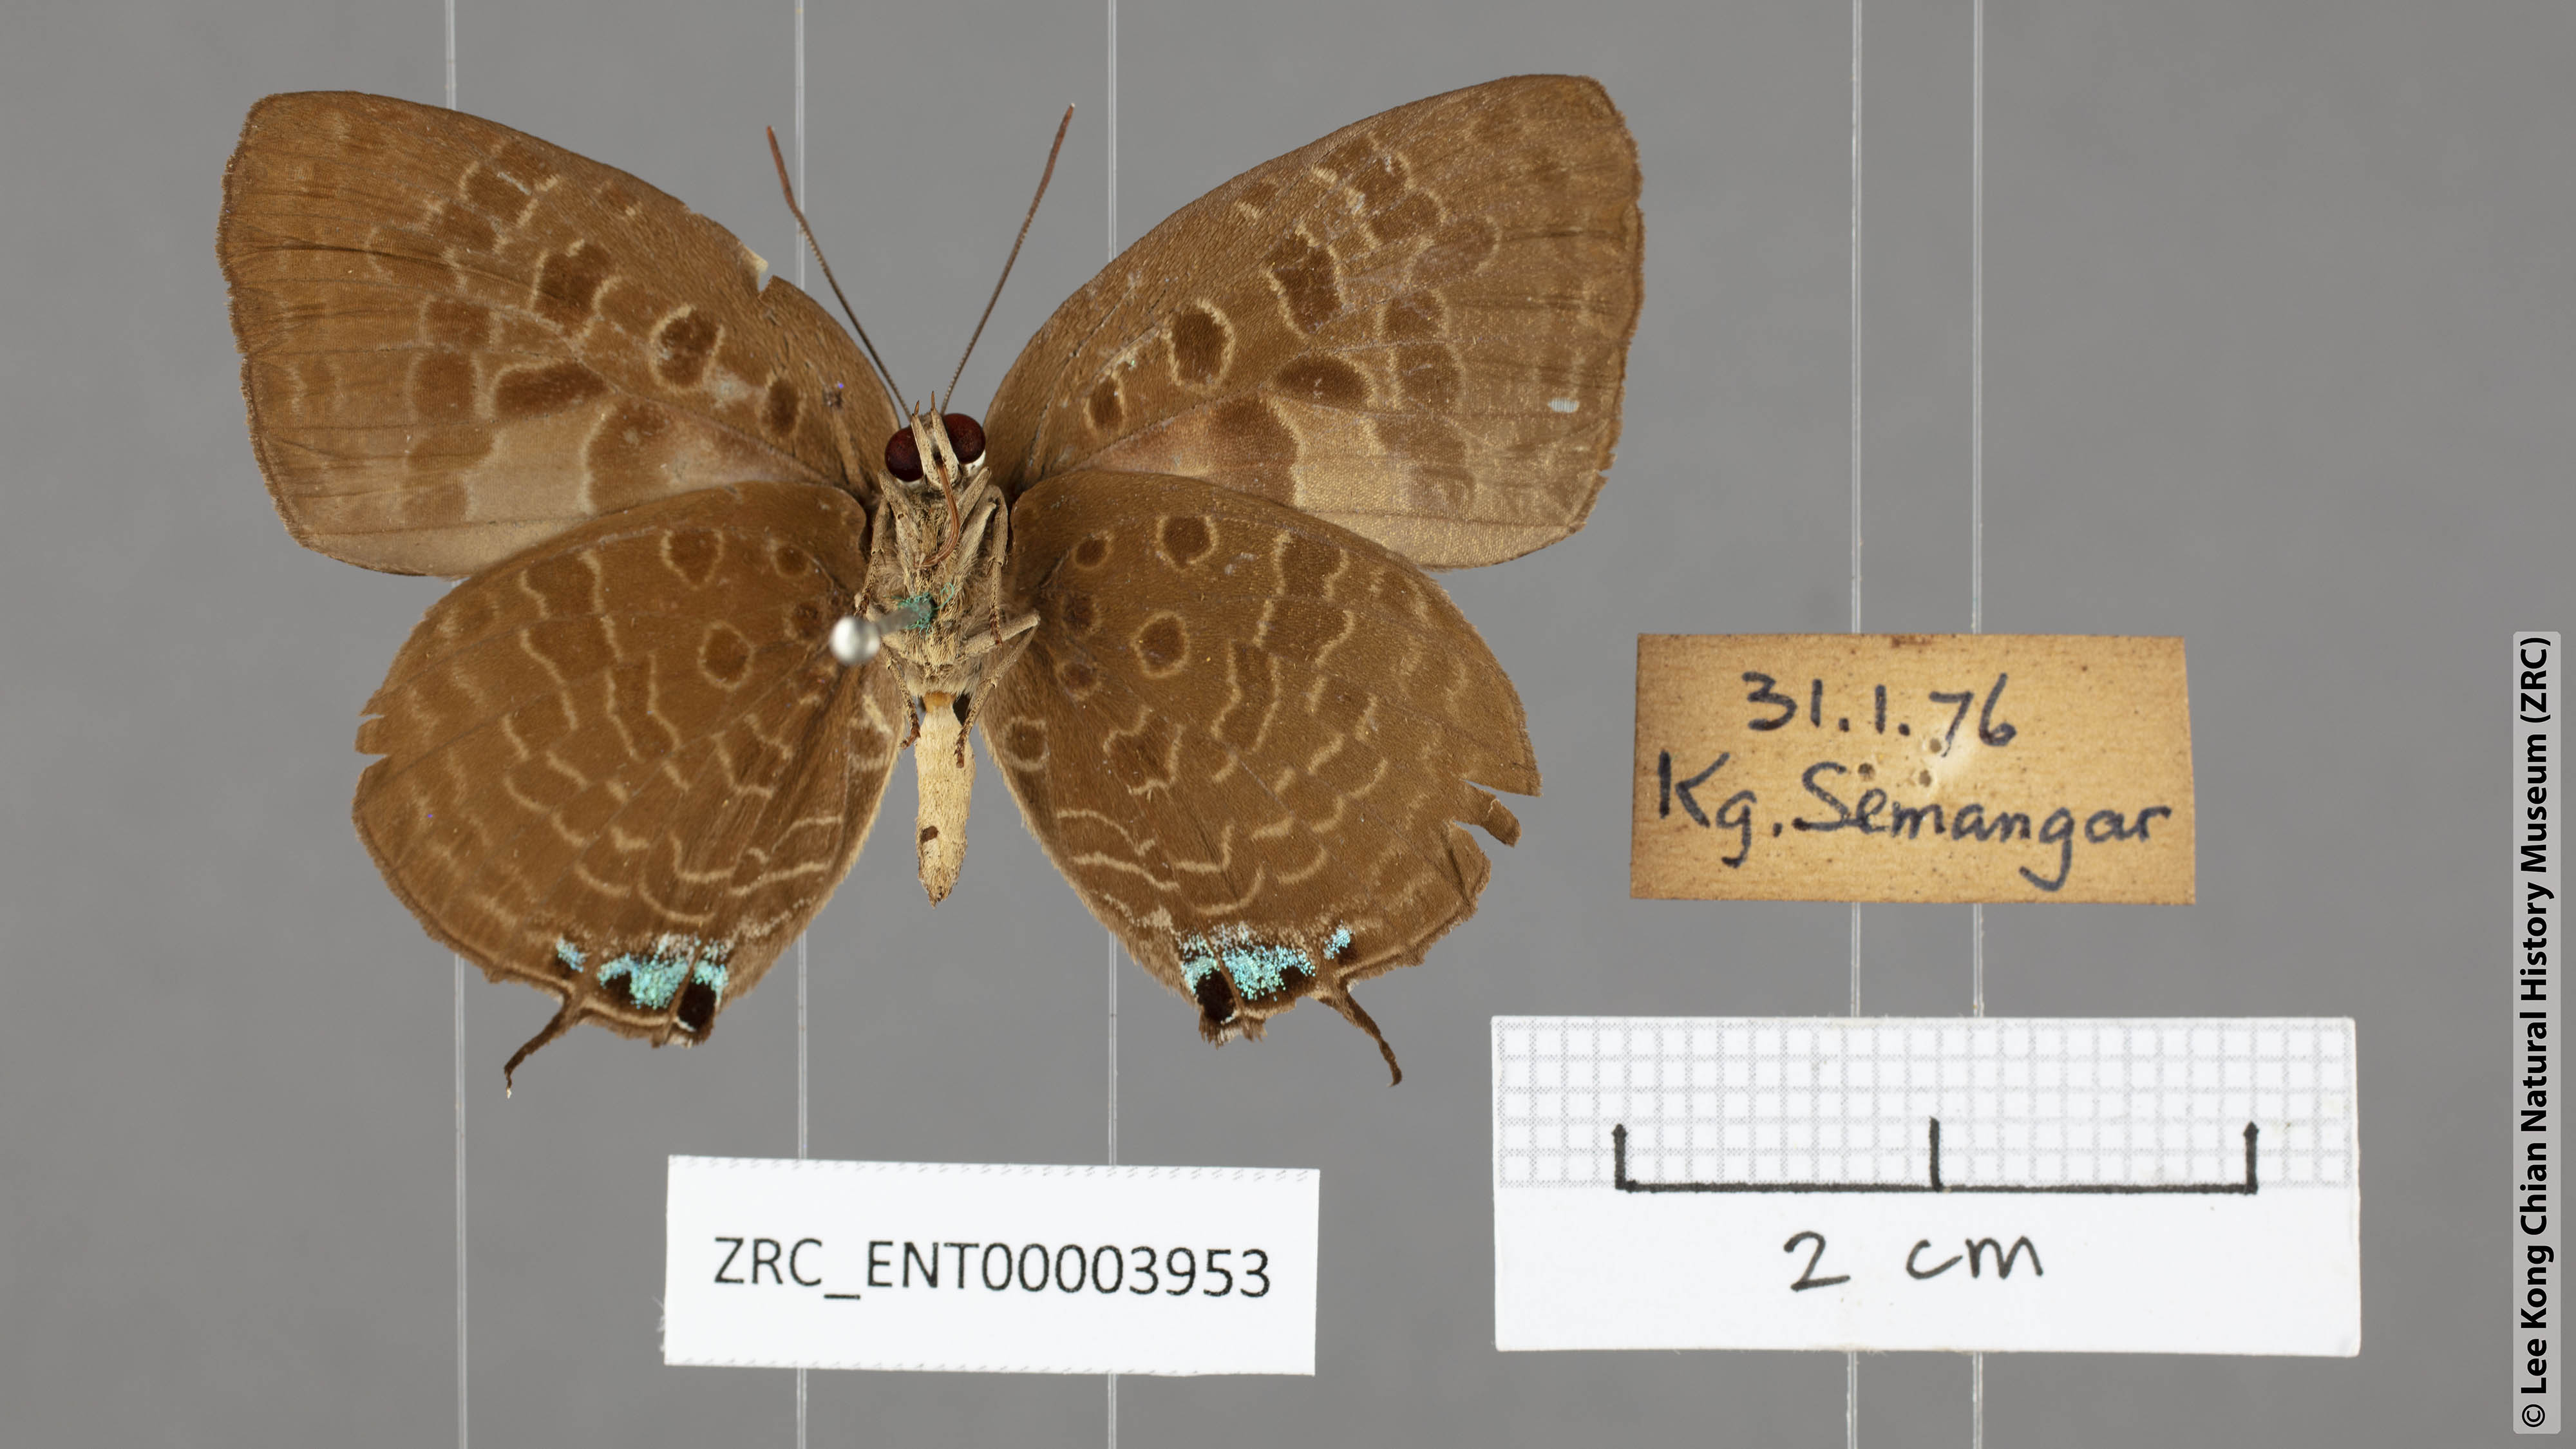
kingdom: Animalia
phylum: Arthropoda
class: Insecta
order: Lepidoptera
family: Lycaenidae
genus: Arhopala
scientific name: Arhopala horsfieldi
